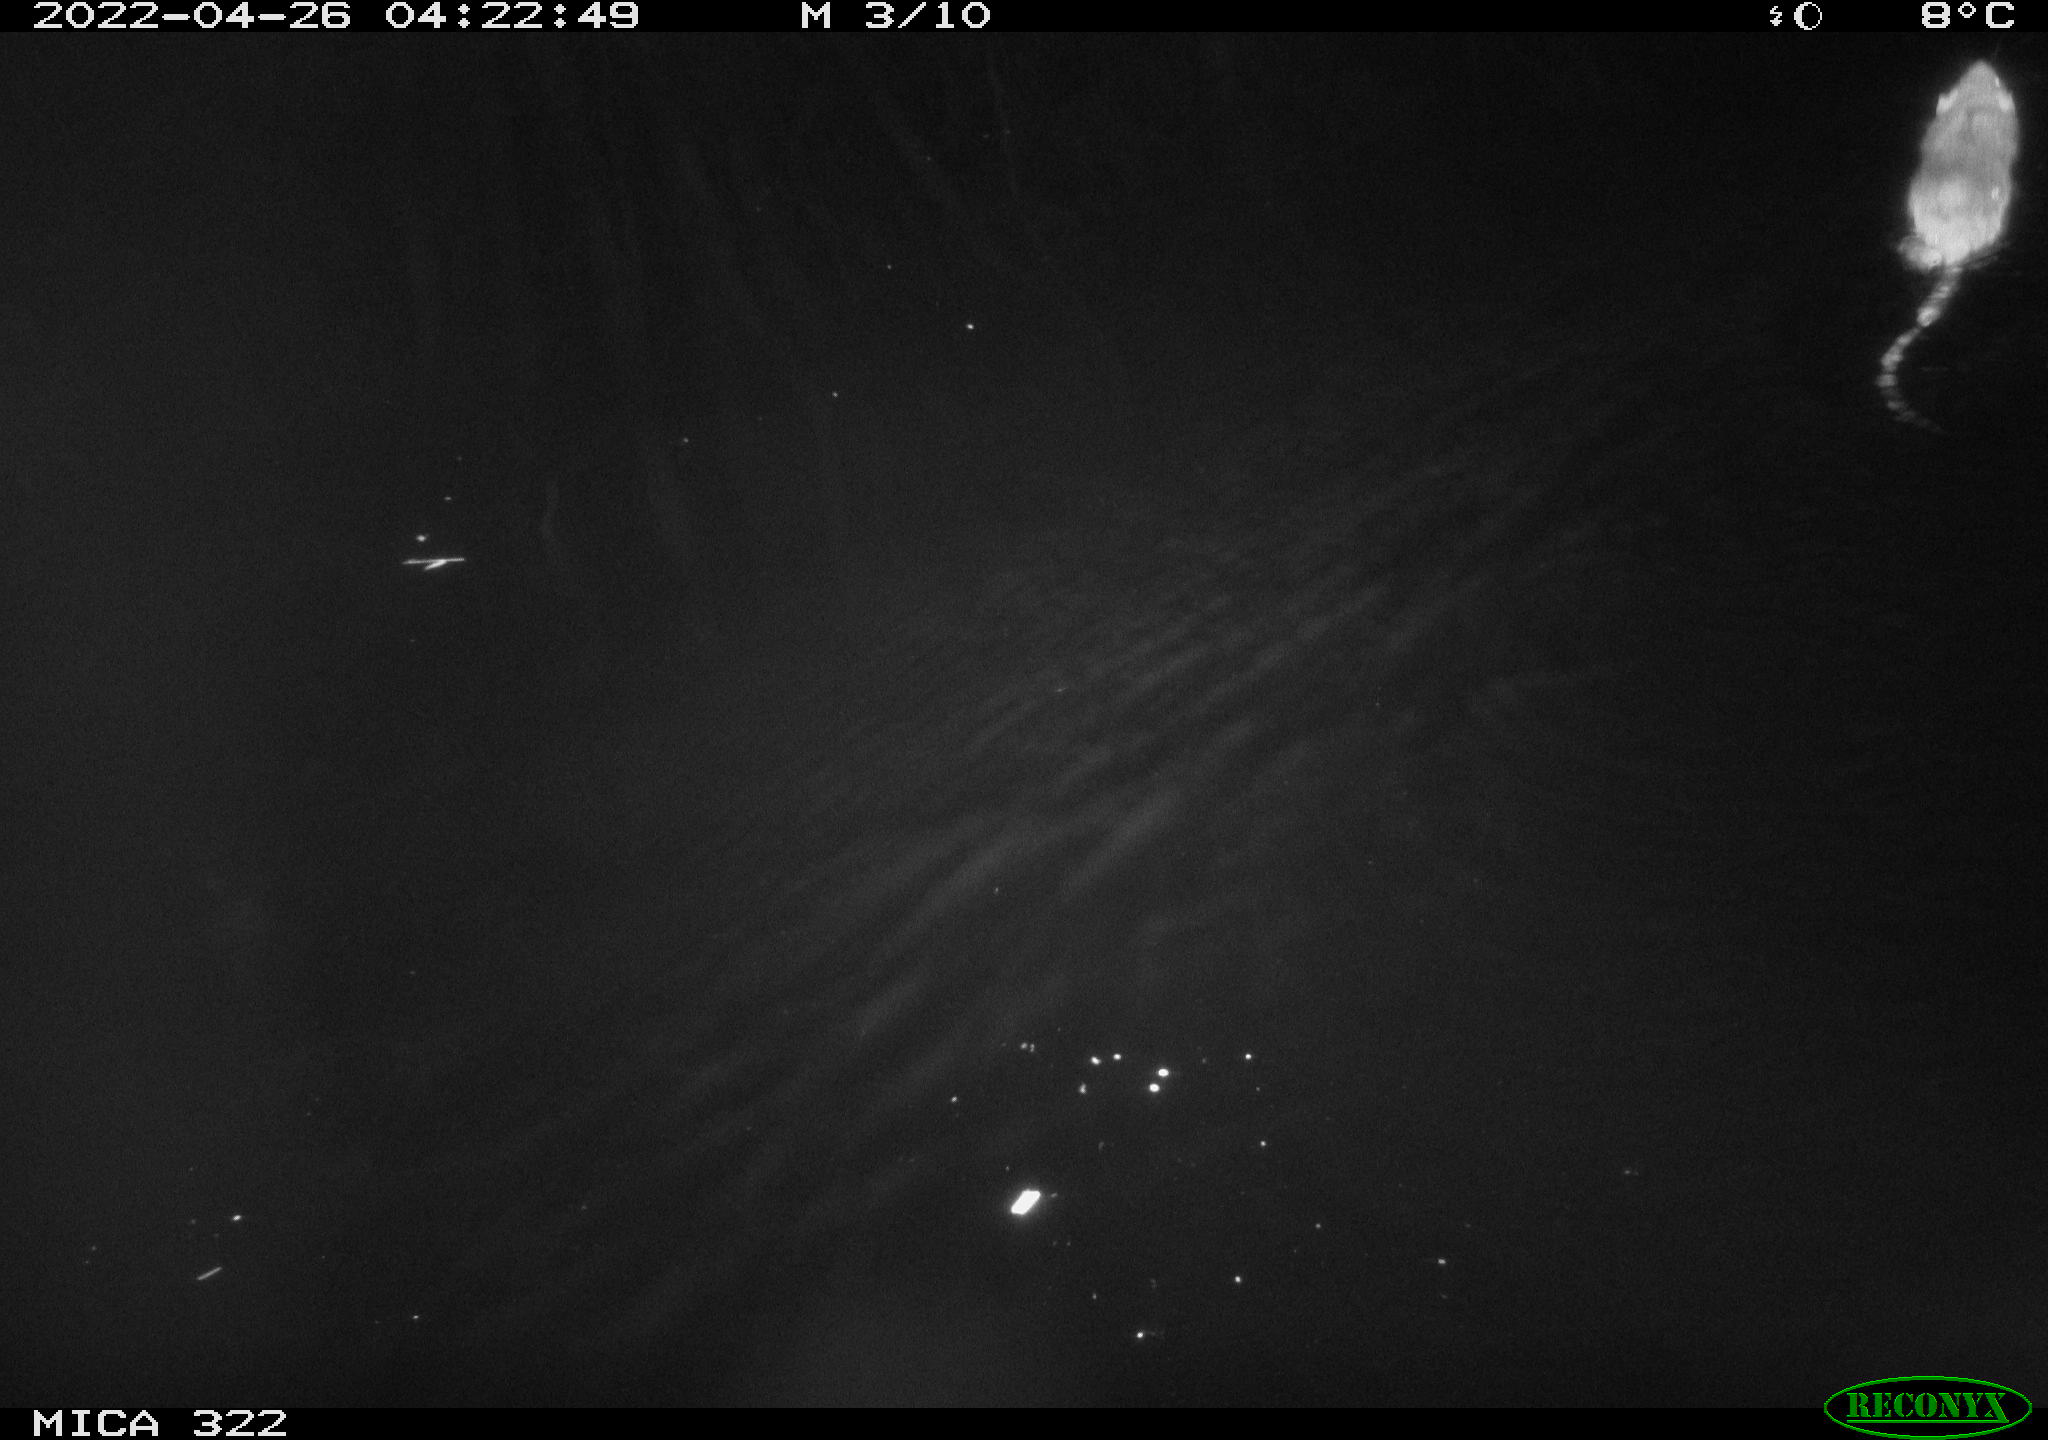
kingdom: Animalia
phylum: Chordata
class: Mammalia
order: Rodentia
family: Cricetidae
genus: Ondatra
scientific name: Ondatra zibethicus
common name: Muskrat
